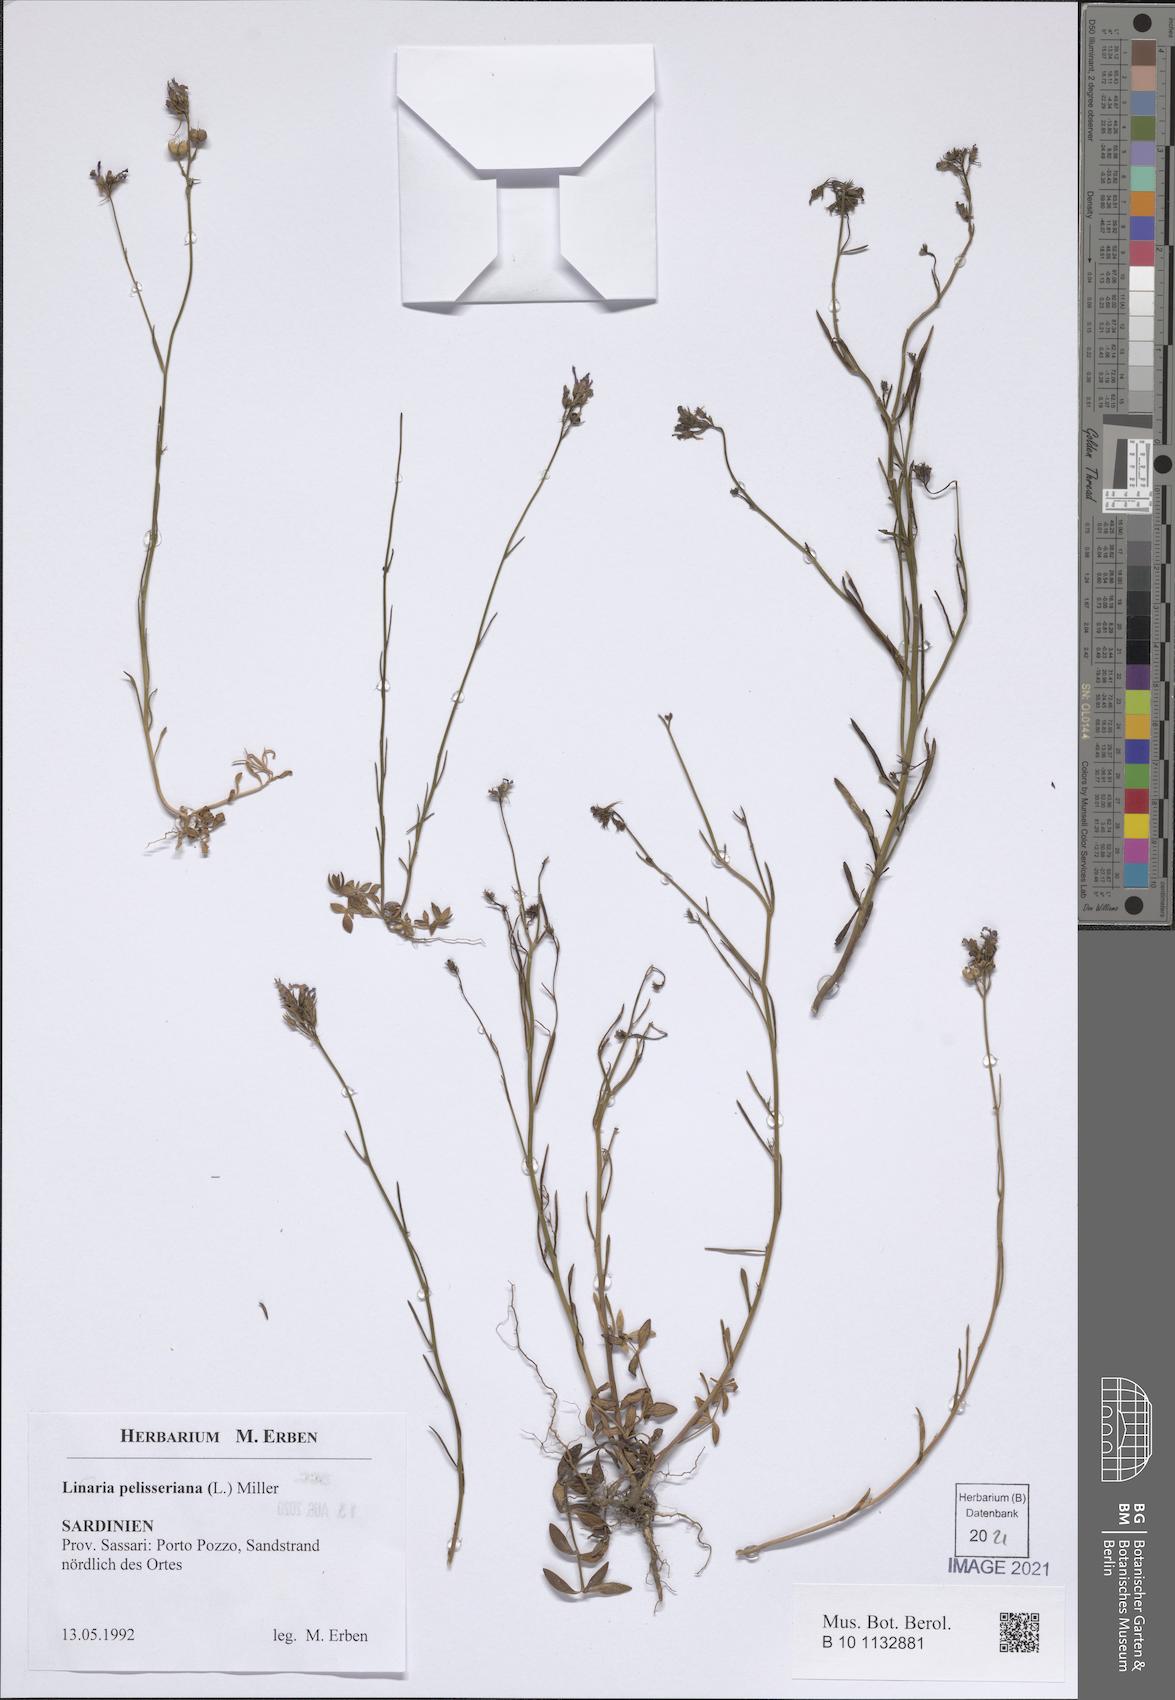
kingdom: Plantae
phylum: Tracheophyta
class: Magnoliopsida
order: Lamiales
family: Plantaginaceae
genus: Linaria
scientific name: Linaria pelisseriana
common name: Jersey toadflax
